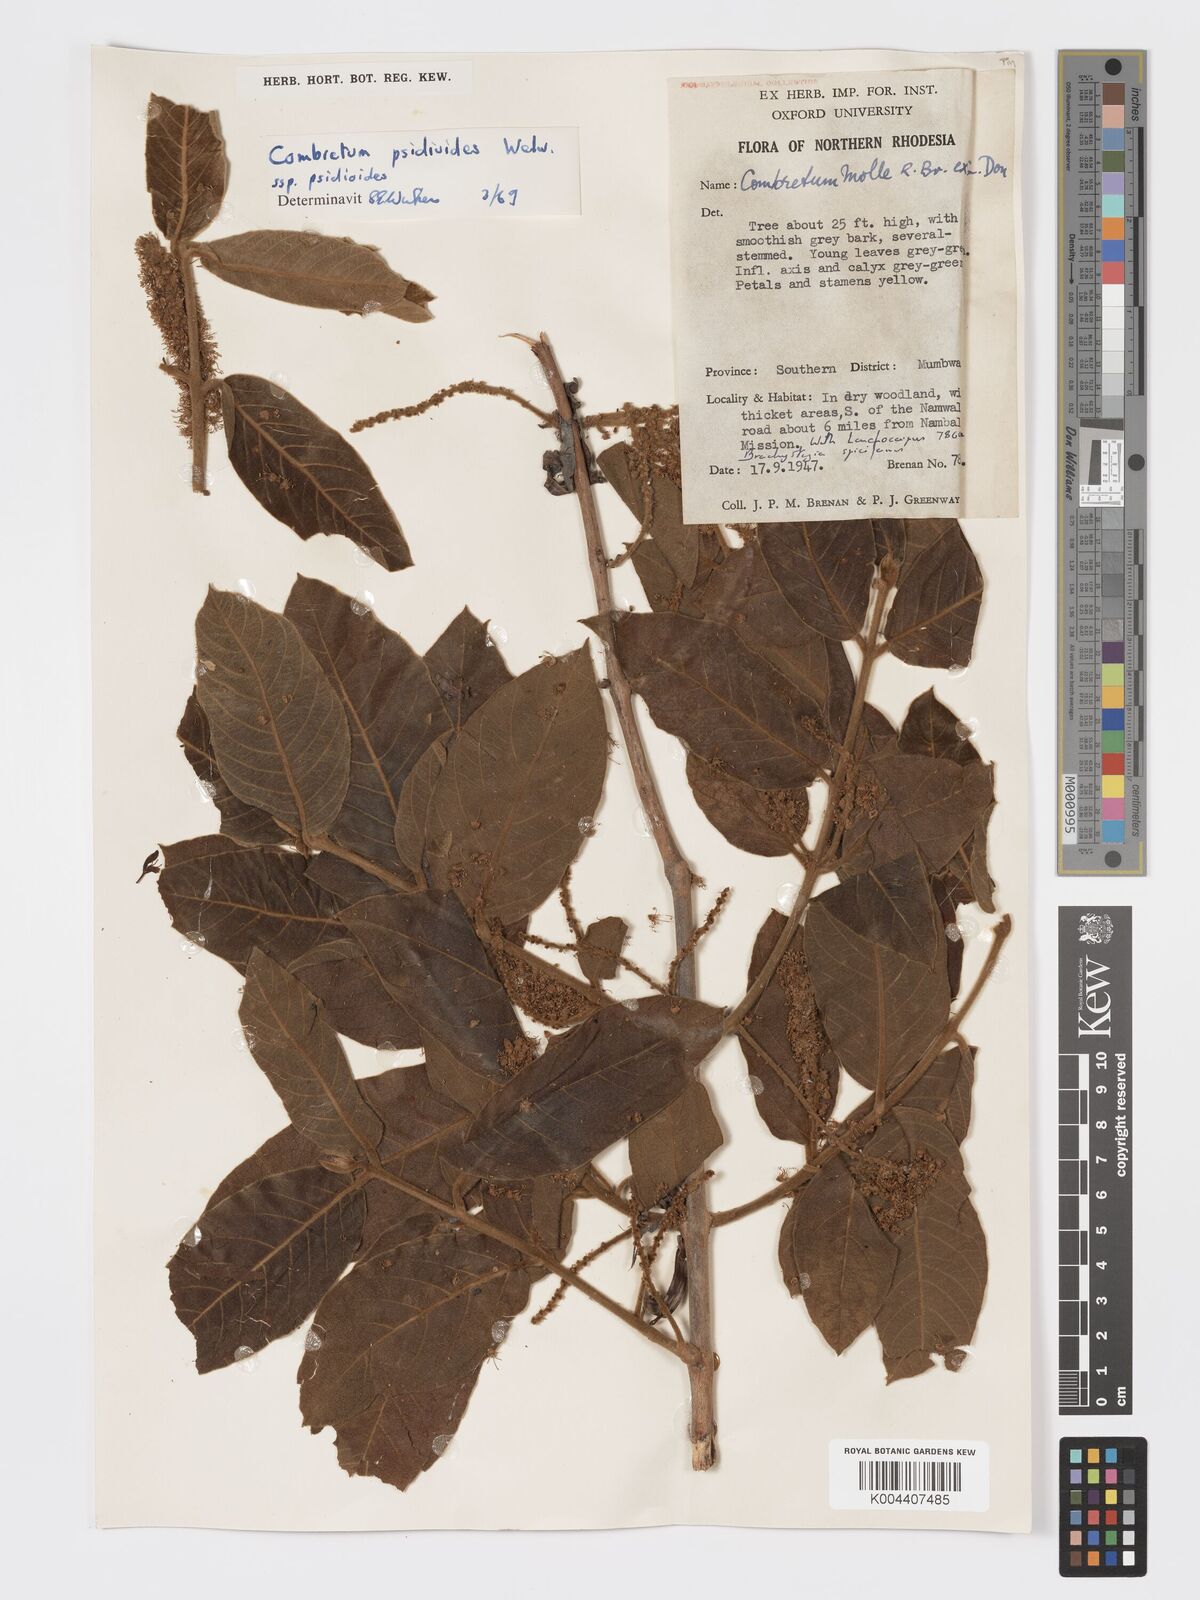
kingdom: Plantae
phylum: Tracheophyta
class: Magnoliopsida
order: Myrtales
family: Combretaceae
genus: Combretum
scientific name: Combretum psidioides
